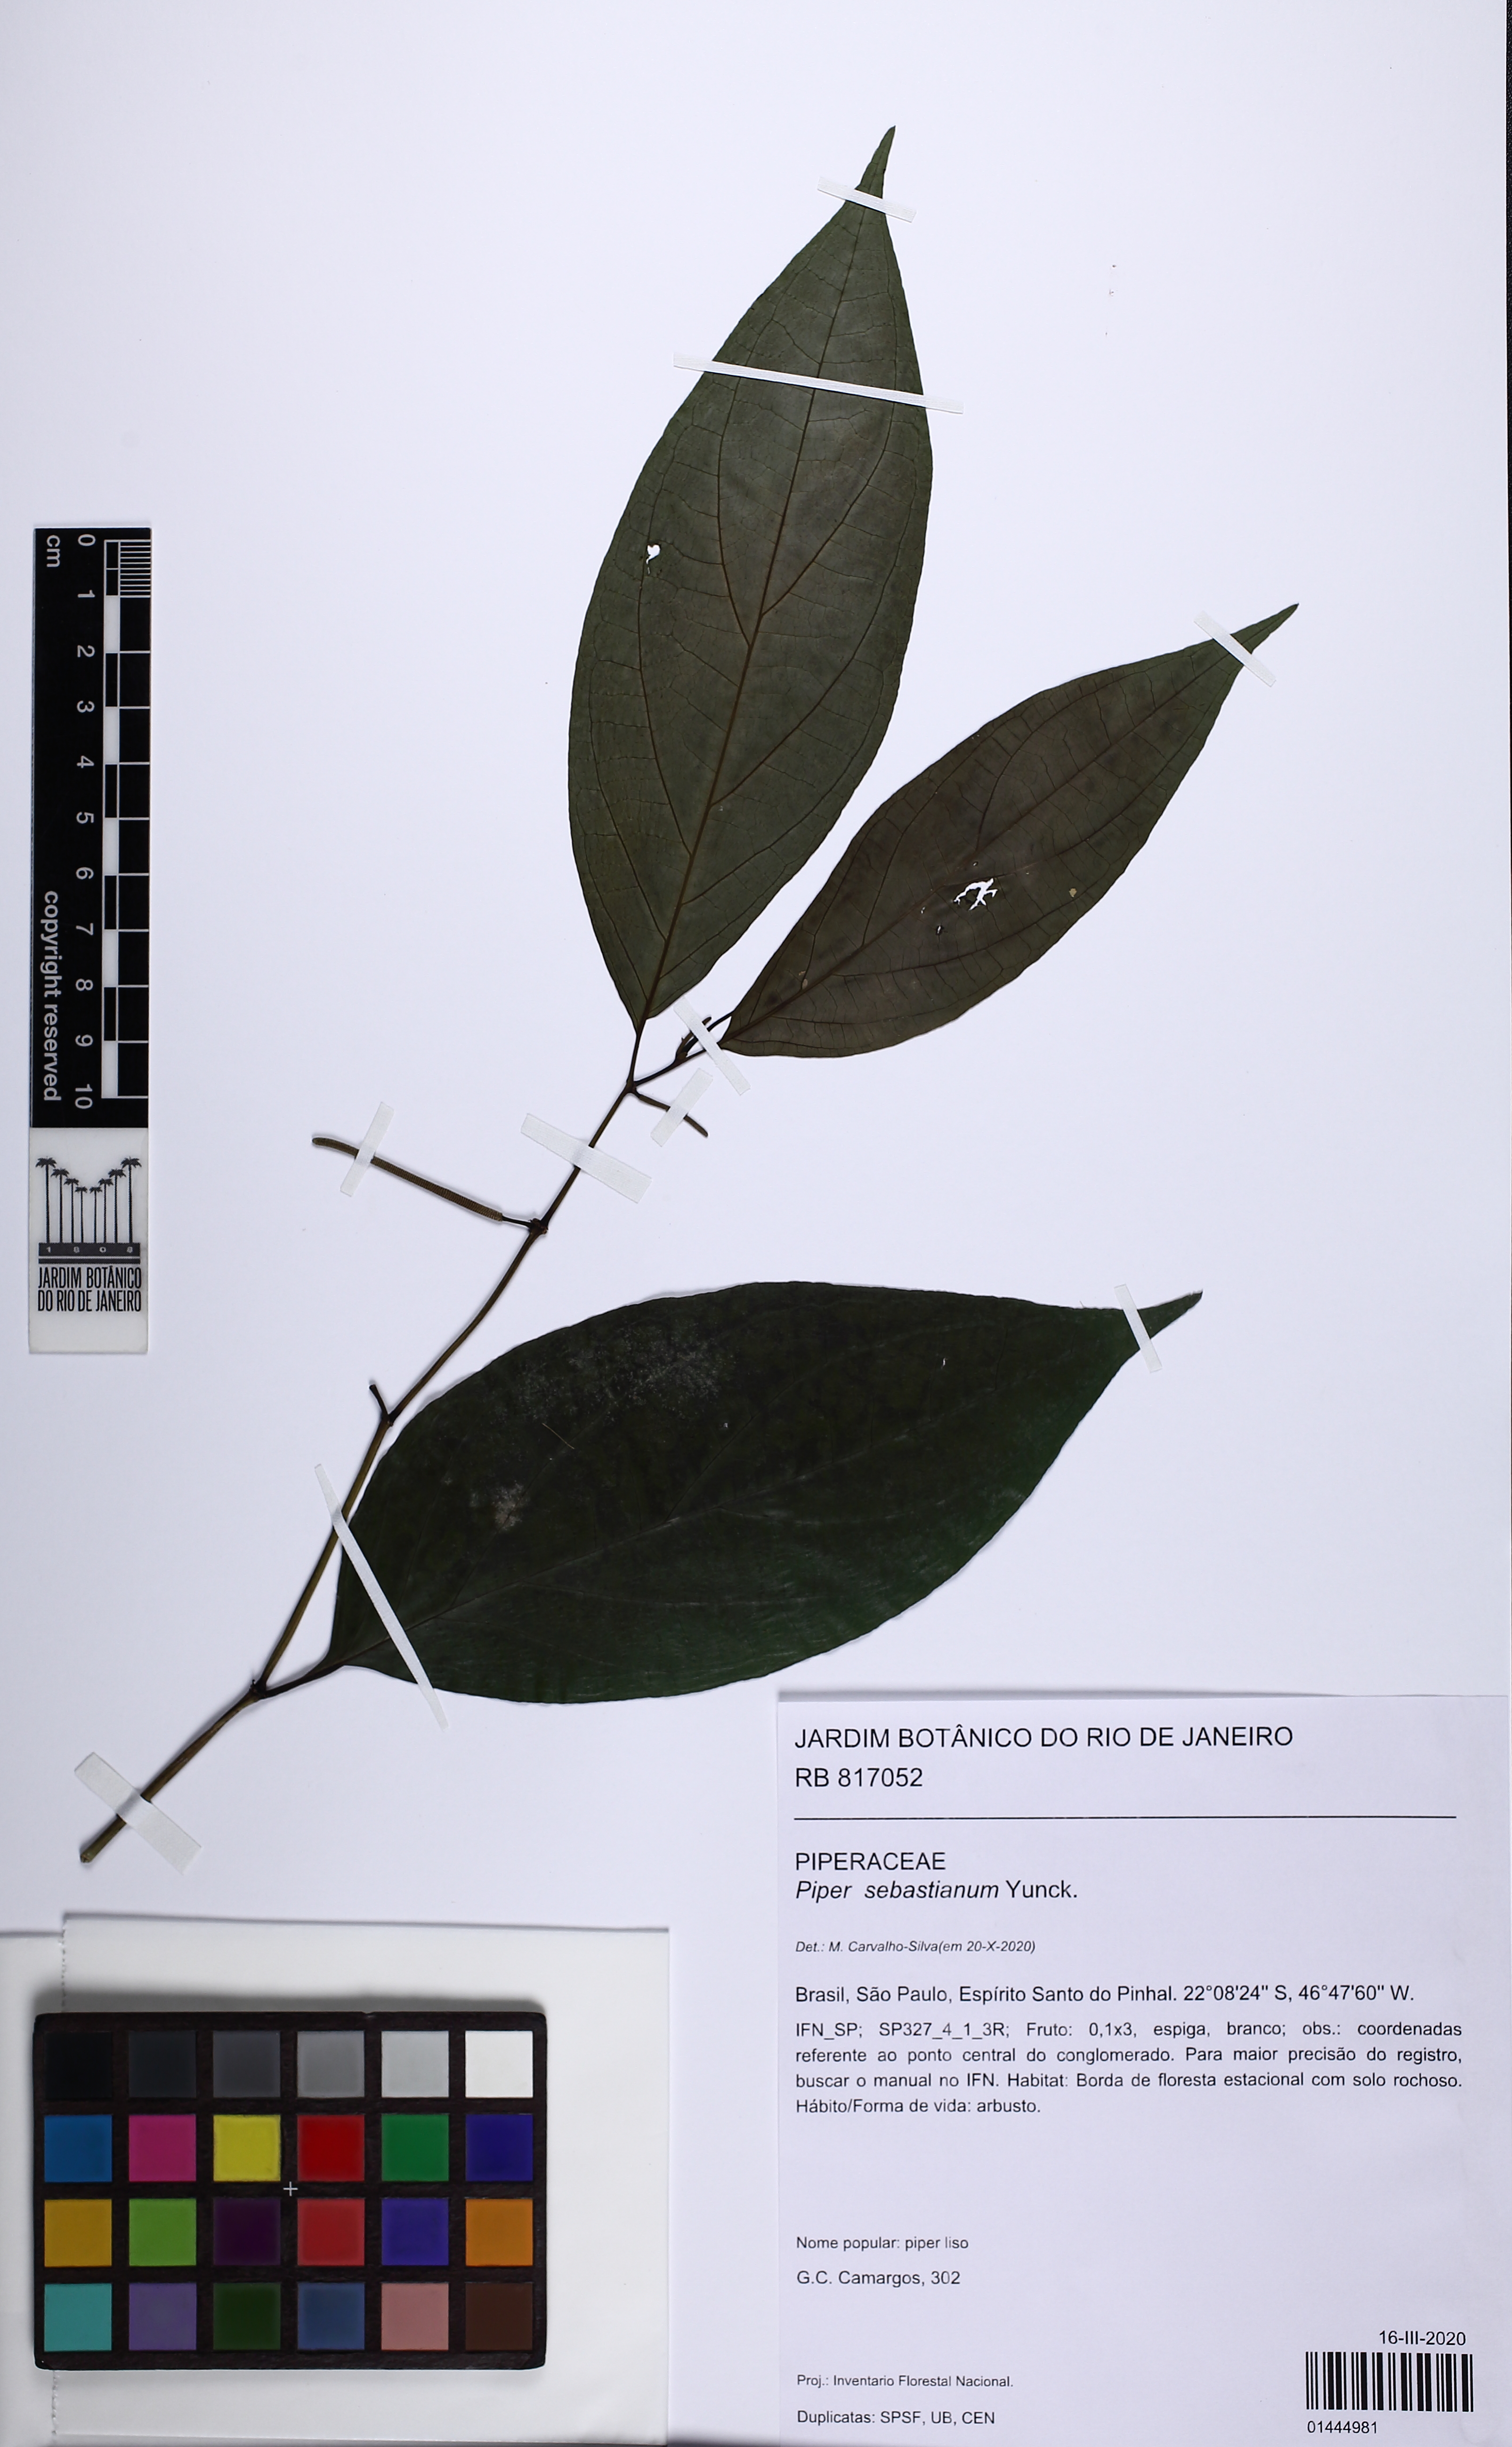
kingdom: Plantae
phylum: Tracheophyta
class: Magnoliopsida
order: Piperales
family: Piperaceae
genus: Piper
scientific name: Piper sebastianum
